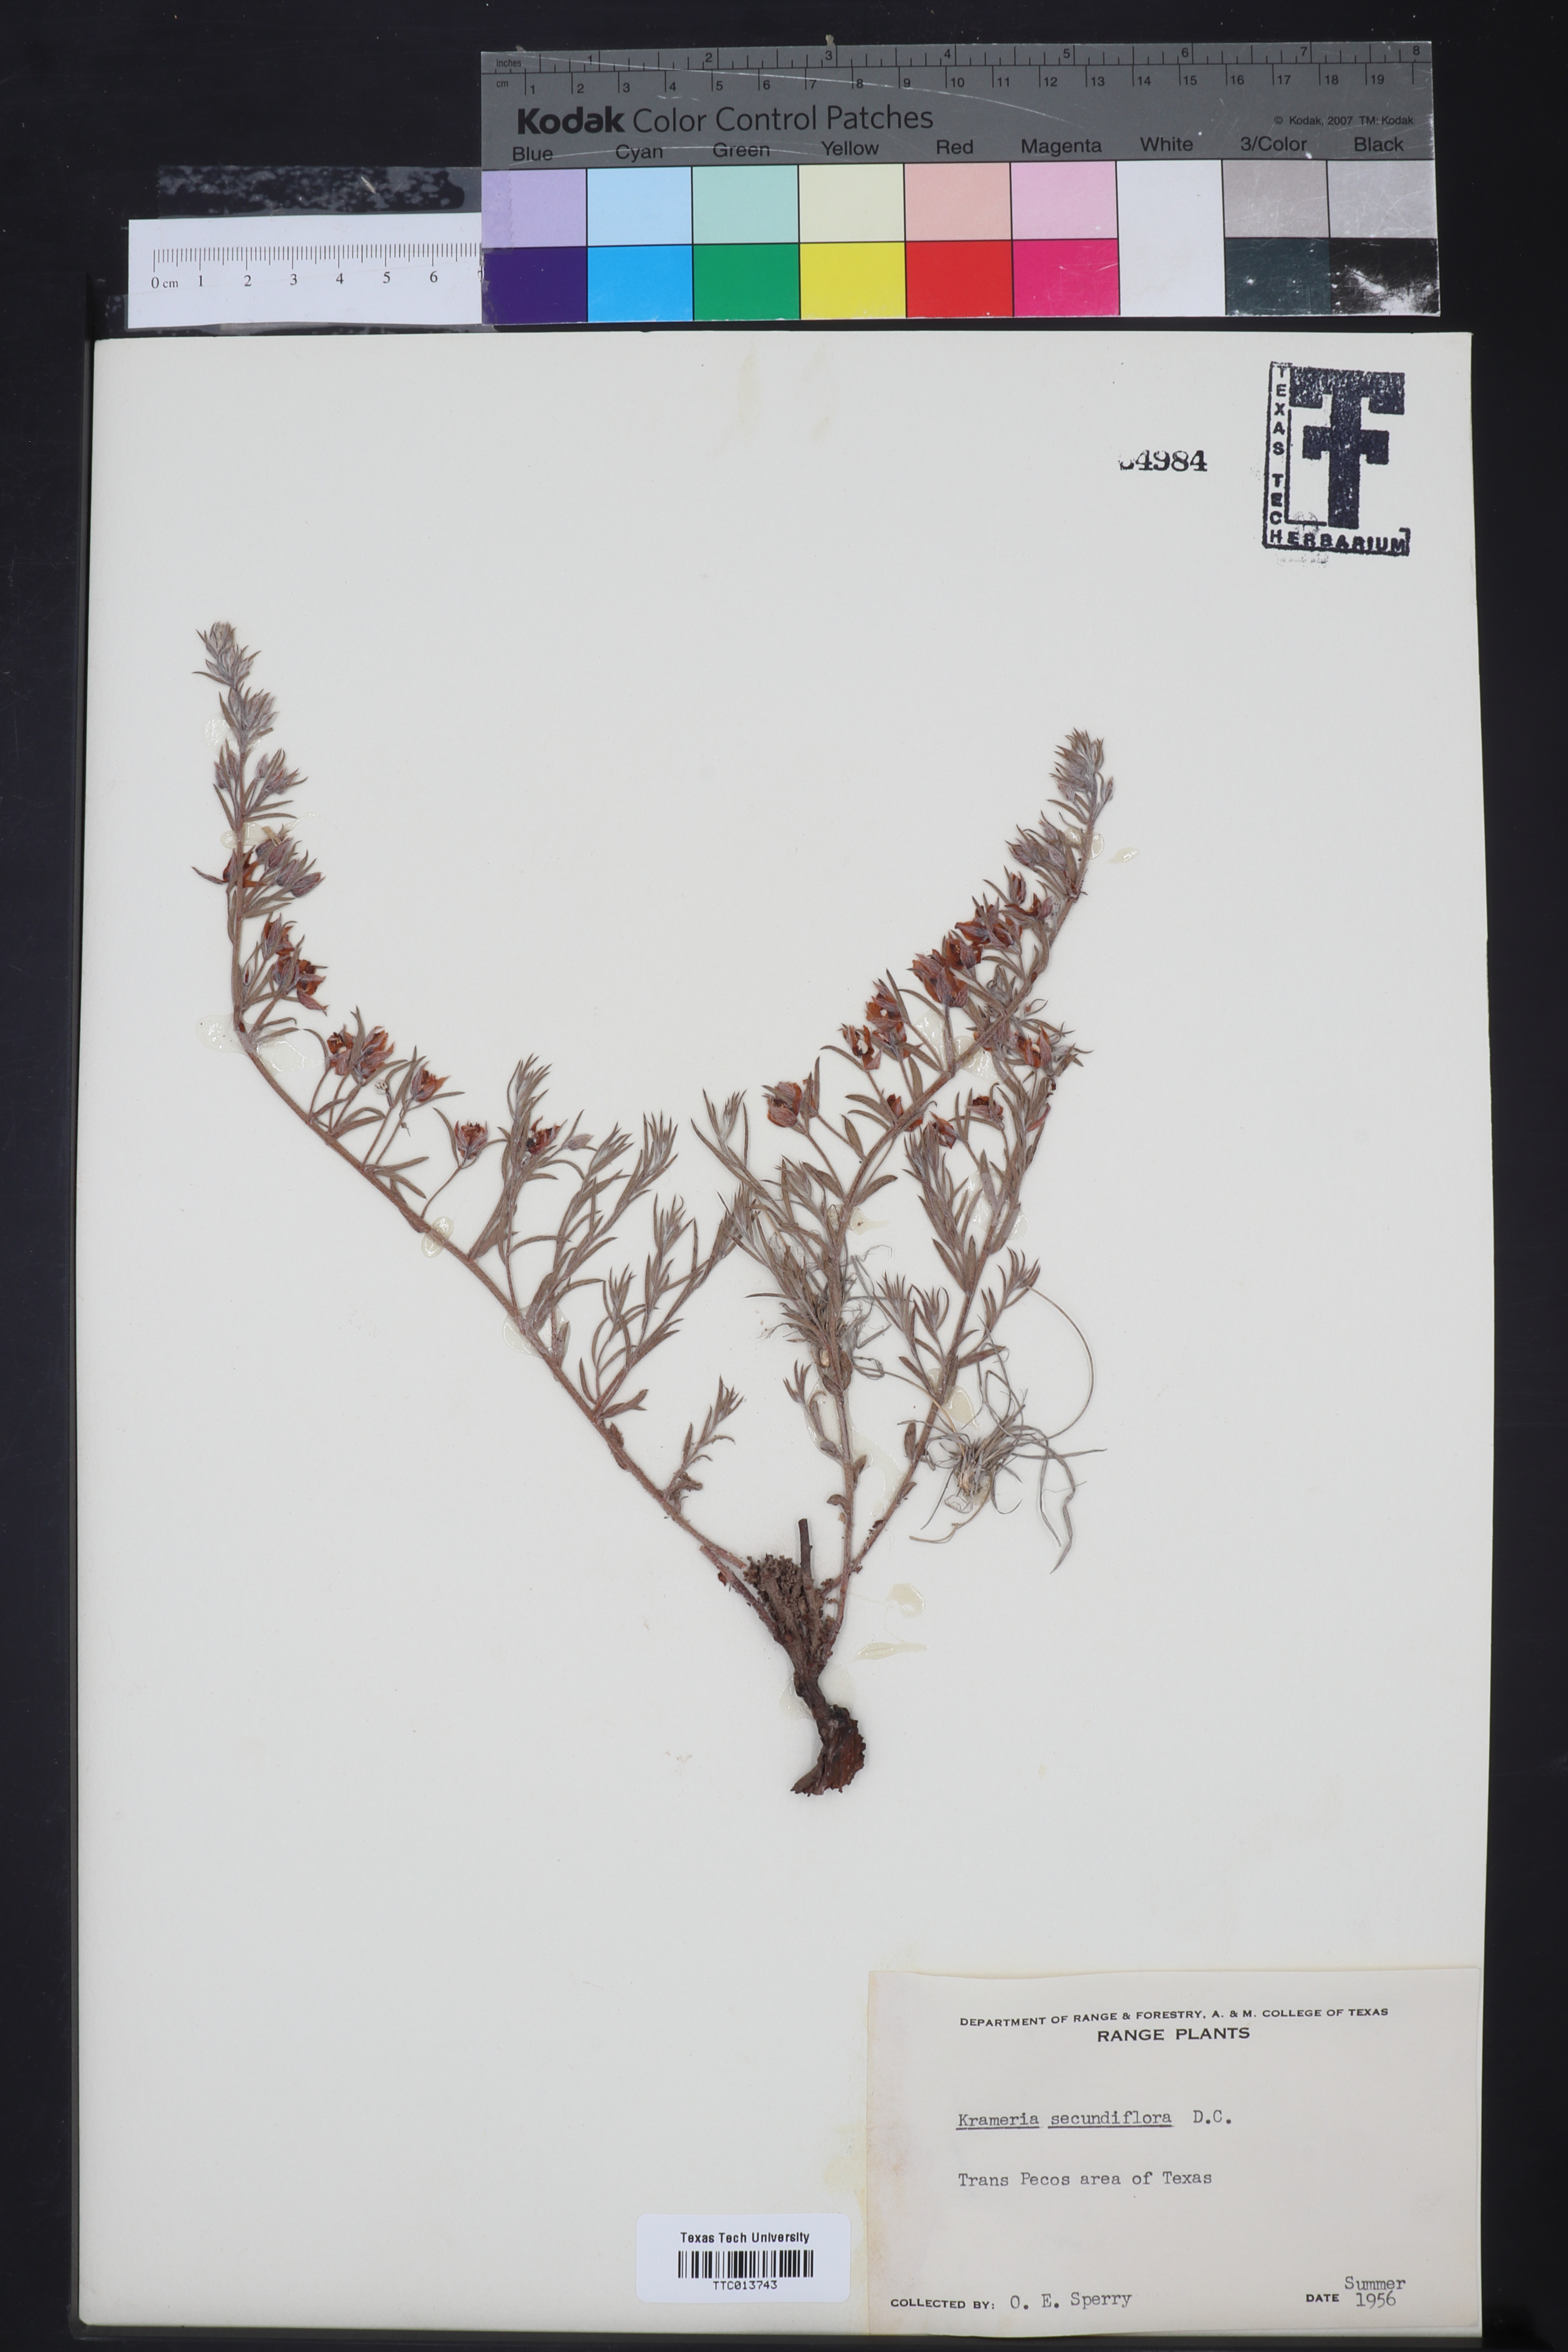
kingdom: Plantae
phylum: Tracheophyta
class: Magnoliopsida
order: Zygophyllales
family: Krameriaceae
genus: Krameria
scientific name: Krameria lanceolata
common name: Ratany
